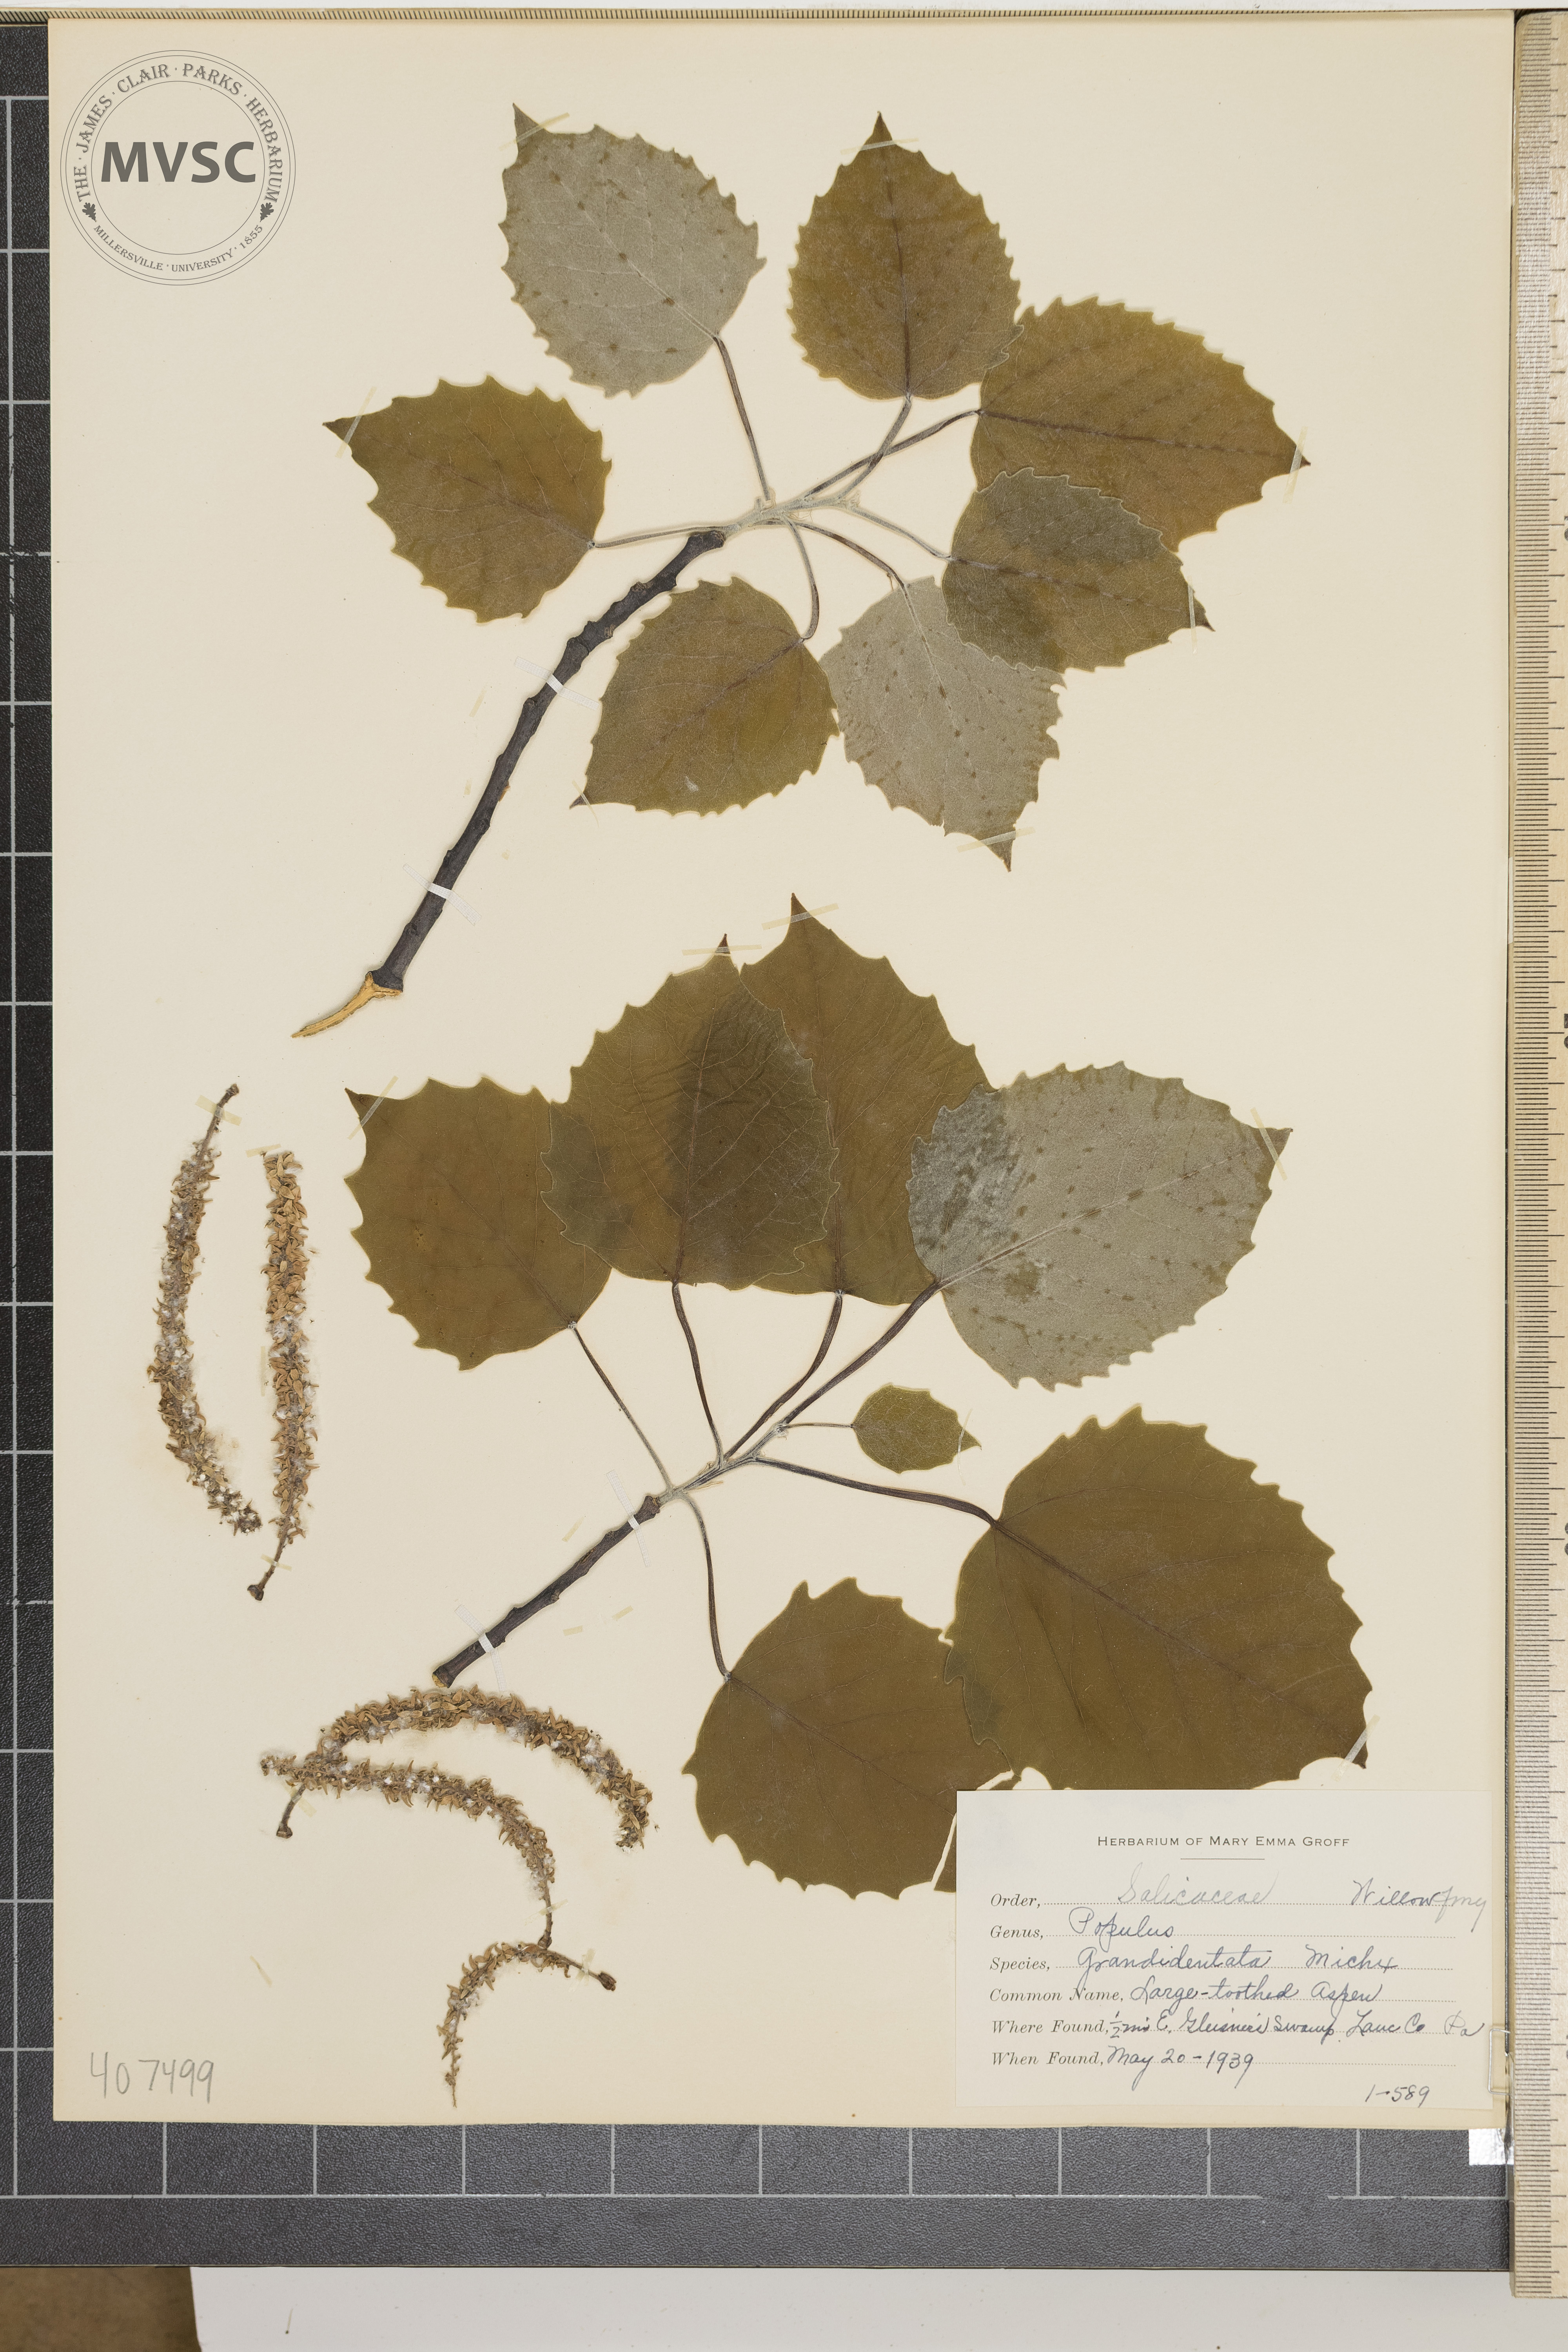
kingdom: Plantae
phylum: Tracheophyta
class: Magnoliopsida
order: Malpighiales
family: Salicaceae
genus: Populus
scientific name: Populus grandidentata
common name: Large-toothed Aspen
